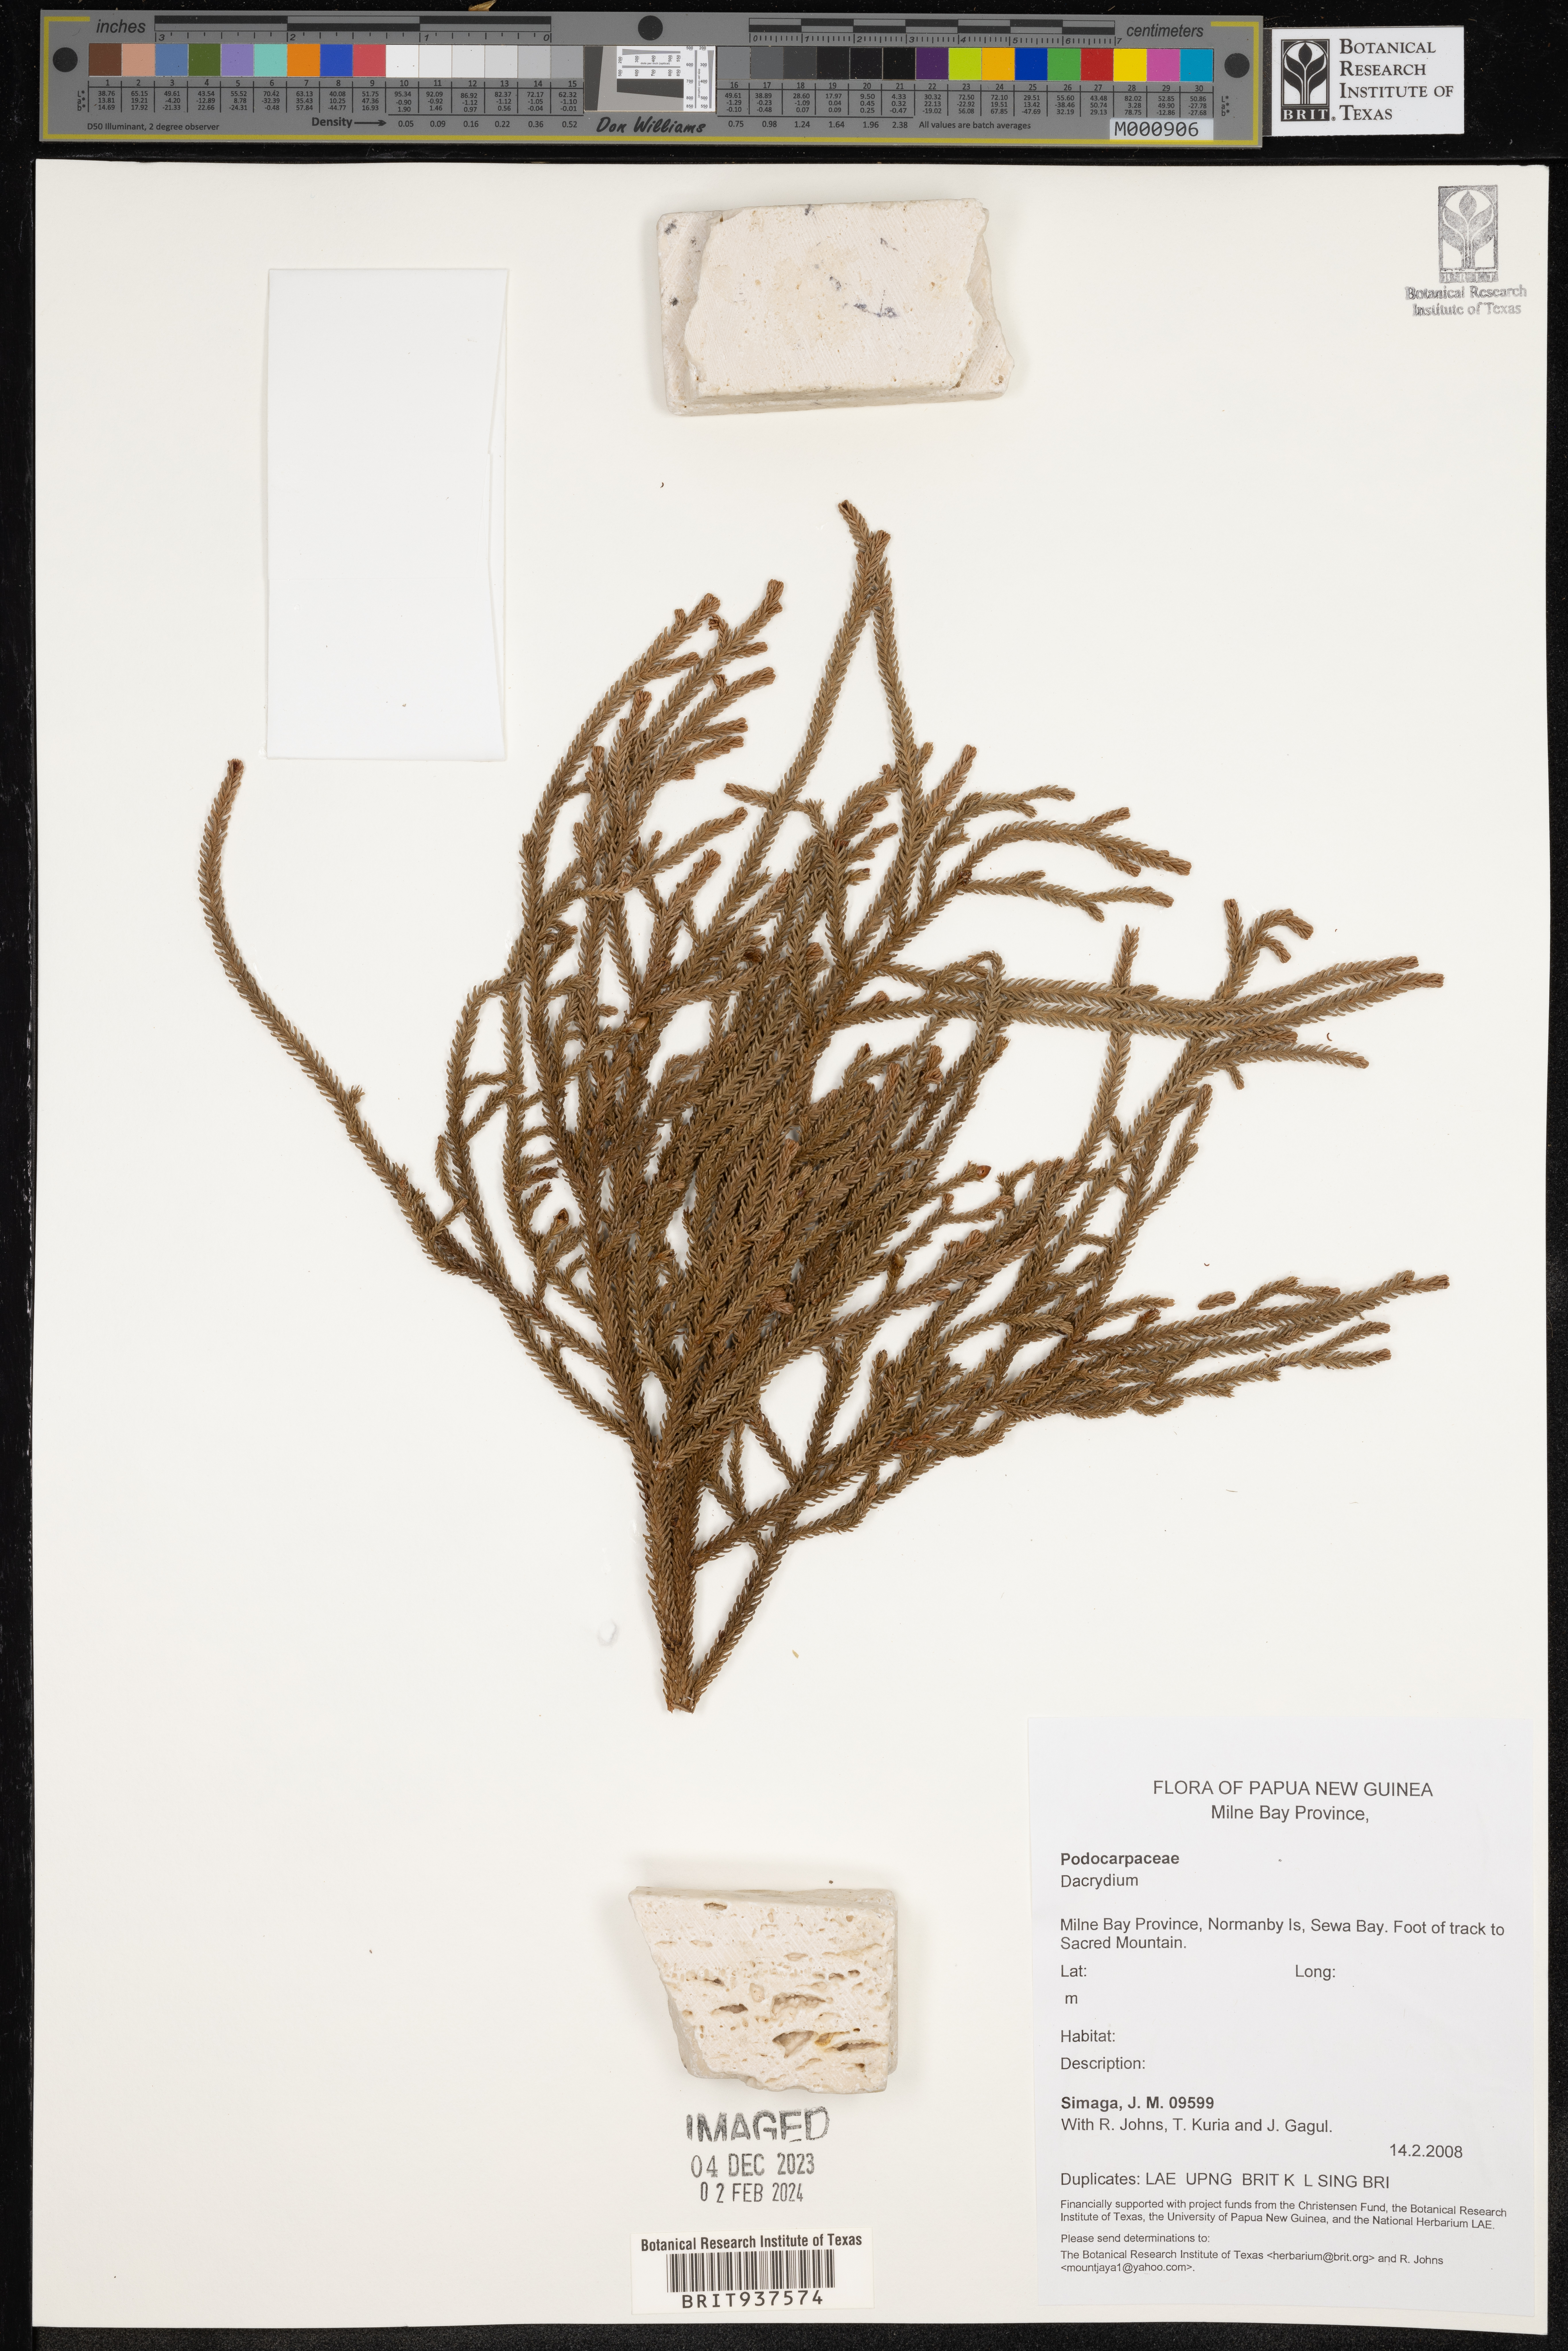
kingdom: Plantae
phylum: Tracheophyta
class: Pinopsida
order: Pinales
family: Podocarpaceae
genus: Dacrydium
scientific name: Dacrydium
